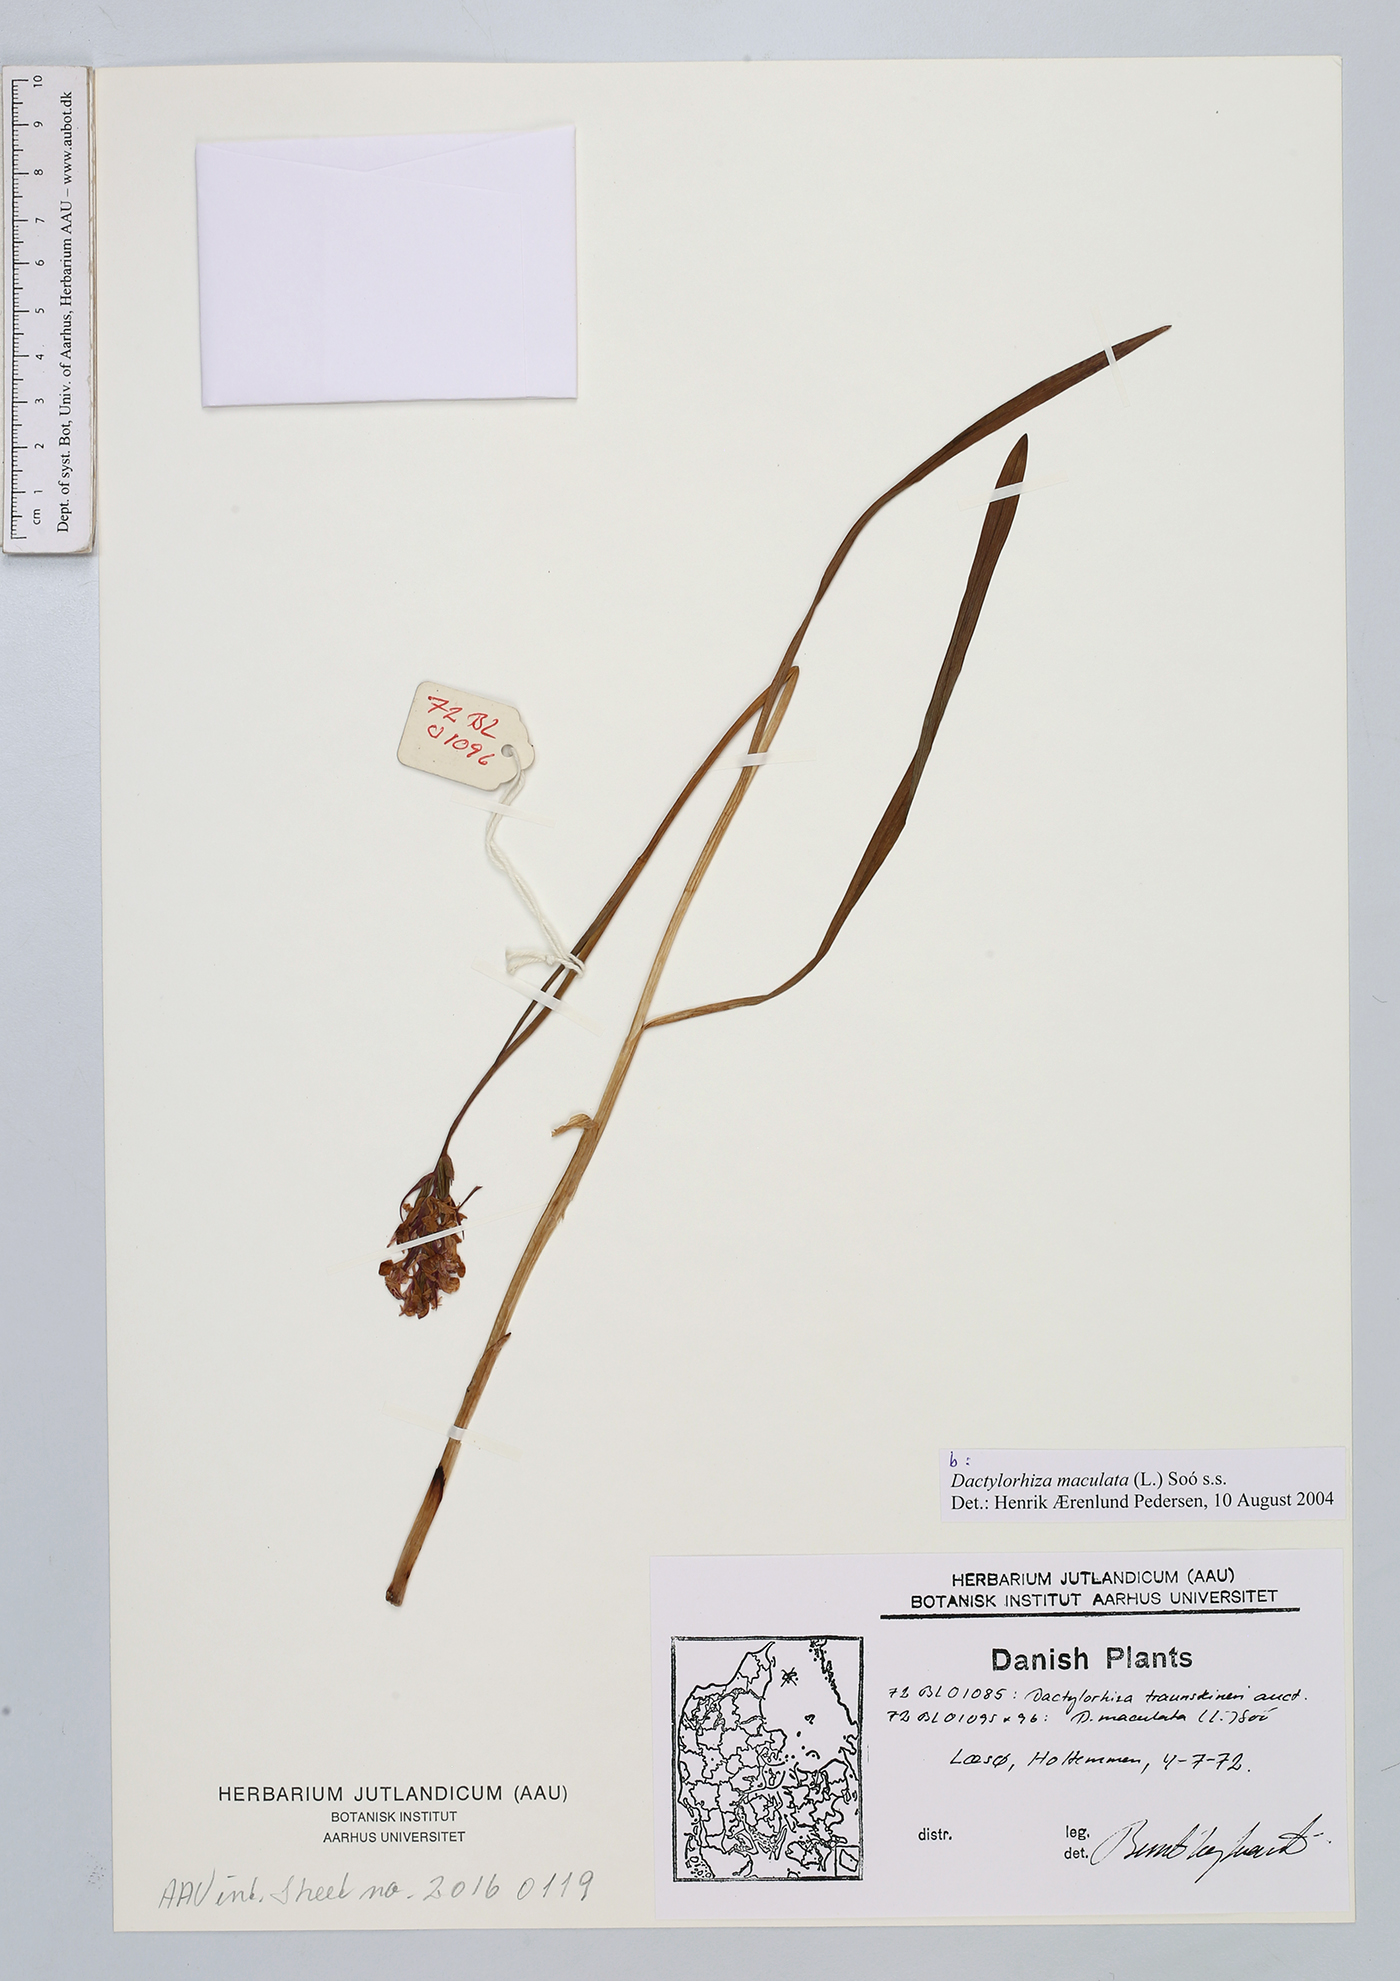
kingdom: Plantae
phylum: Tracheophyta
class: Liliopsida
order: Asparagales
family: Orchidaceae
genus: Dactylorhiza
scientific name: Dactylorhiza maculata
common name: Heath spotted-orchid
